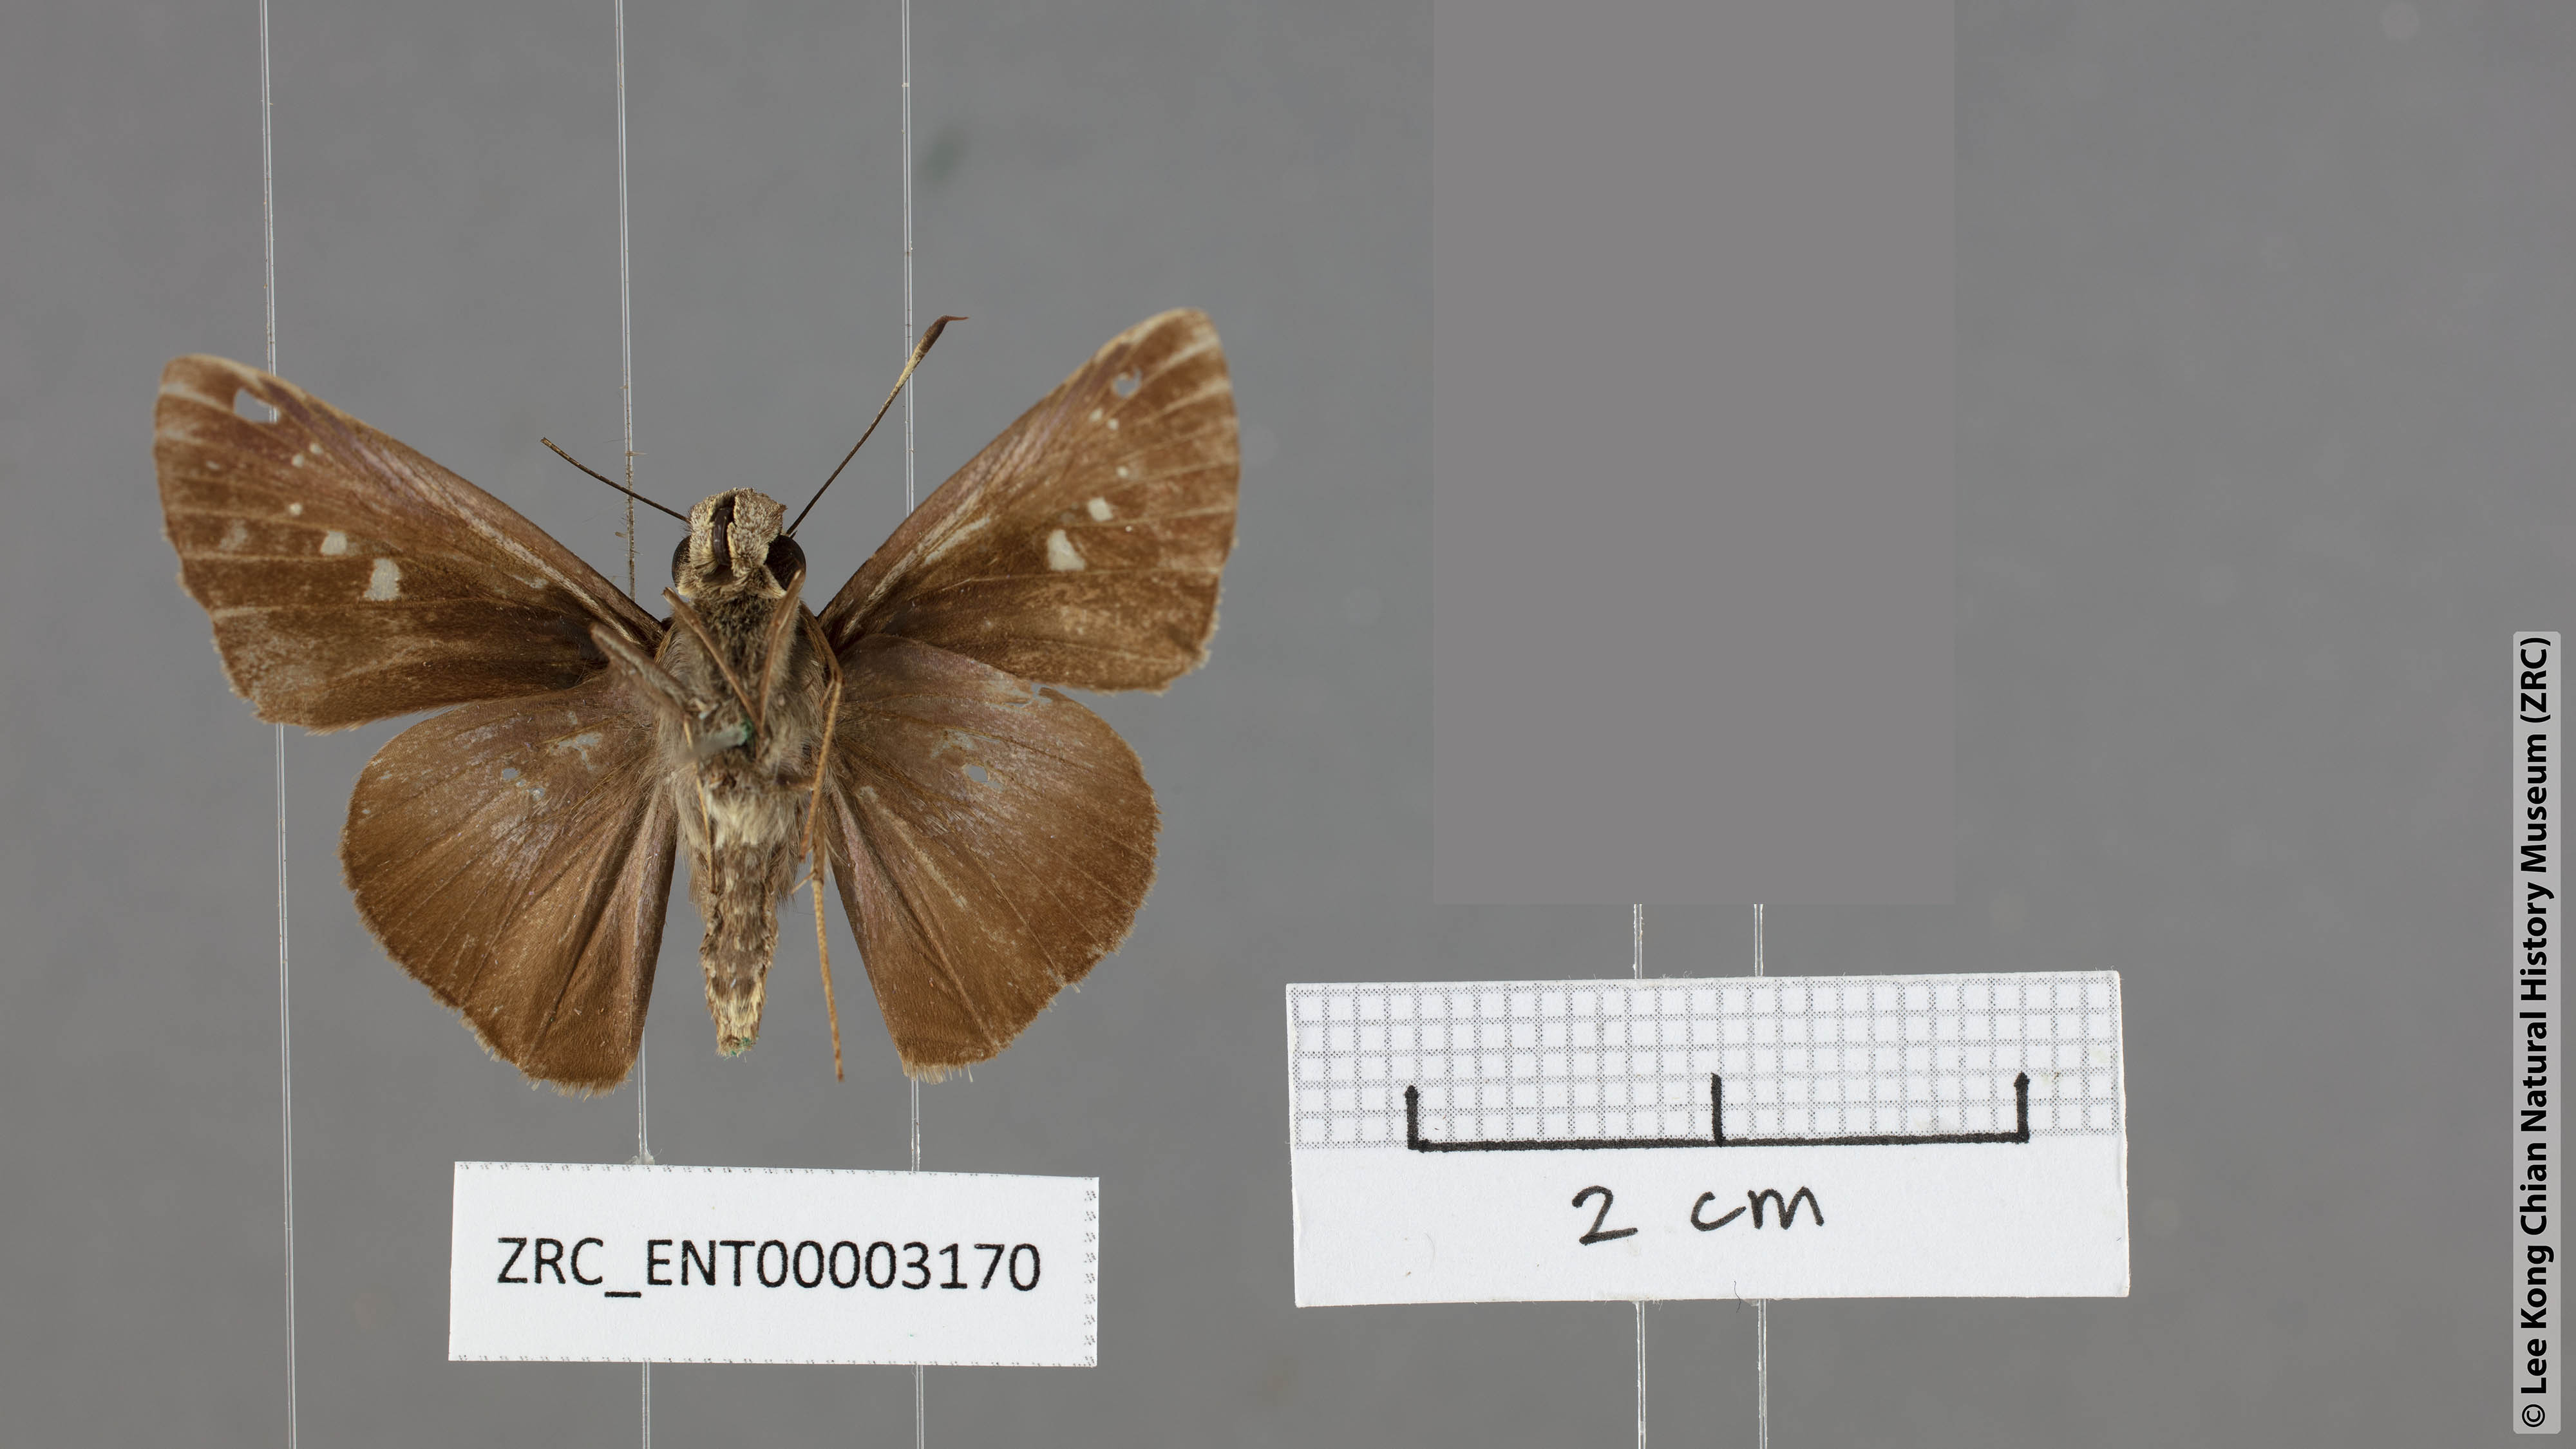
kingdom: Animalia
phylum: Arthropoda
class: Insecta
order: Lepidoptera
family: Hesperiidae
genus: Caltoris
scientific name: Caltoris tulsi
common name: Purple swift
